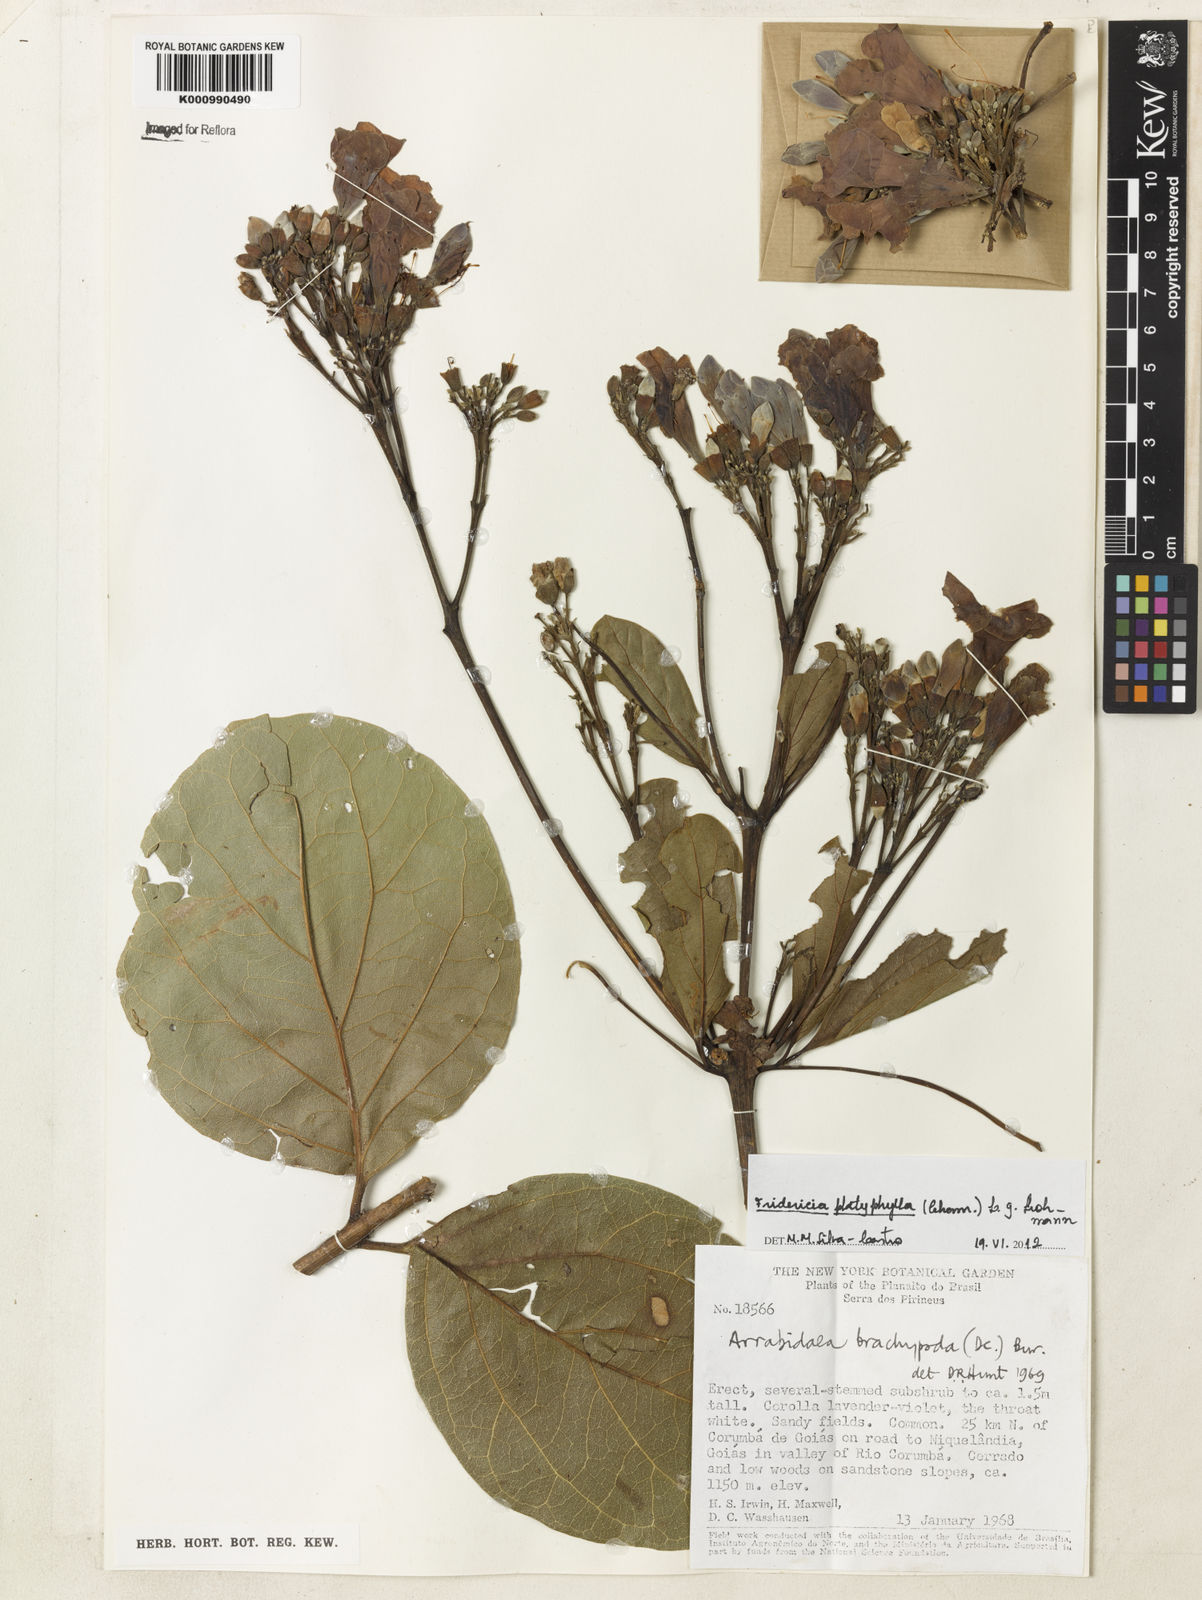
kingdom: Plantae
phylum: Tracheophyta
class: Magnoliopsida
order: Lamiales
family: Bignoniaceae
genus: Fridericia
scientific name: Fridericia platyphylla
